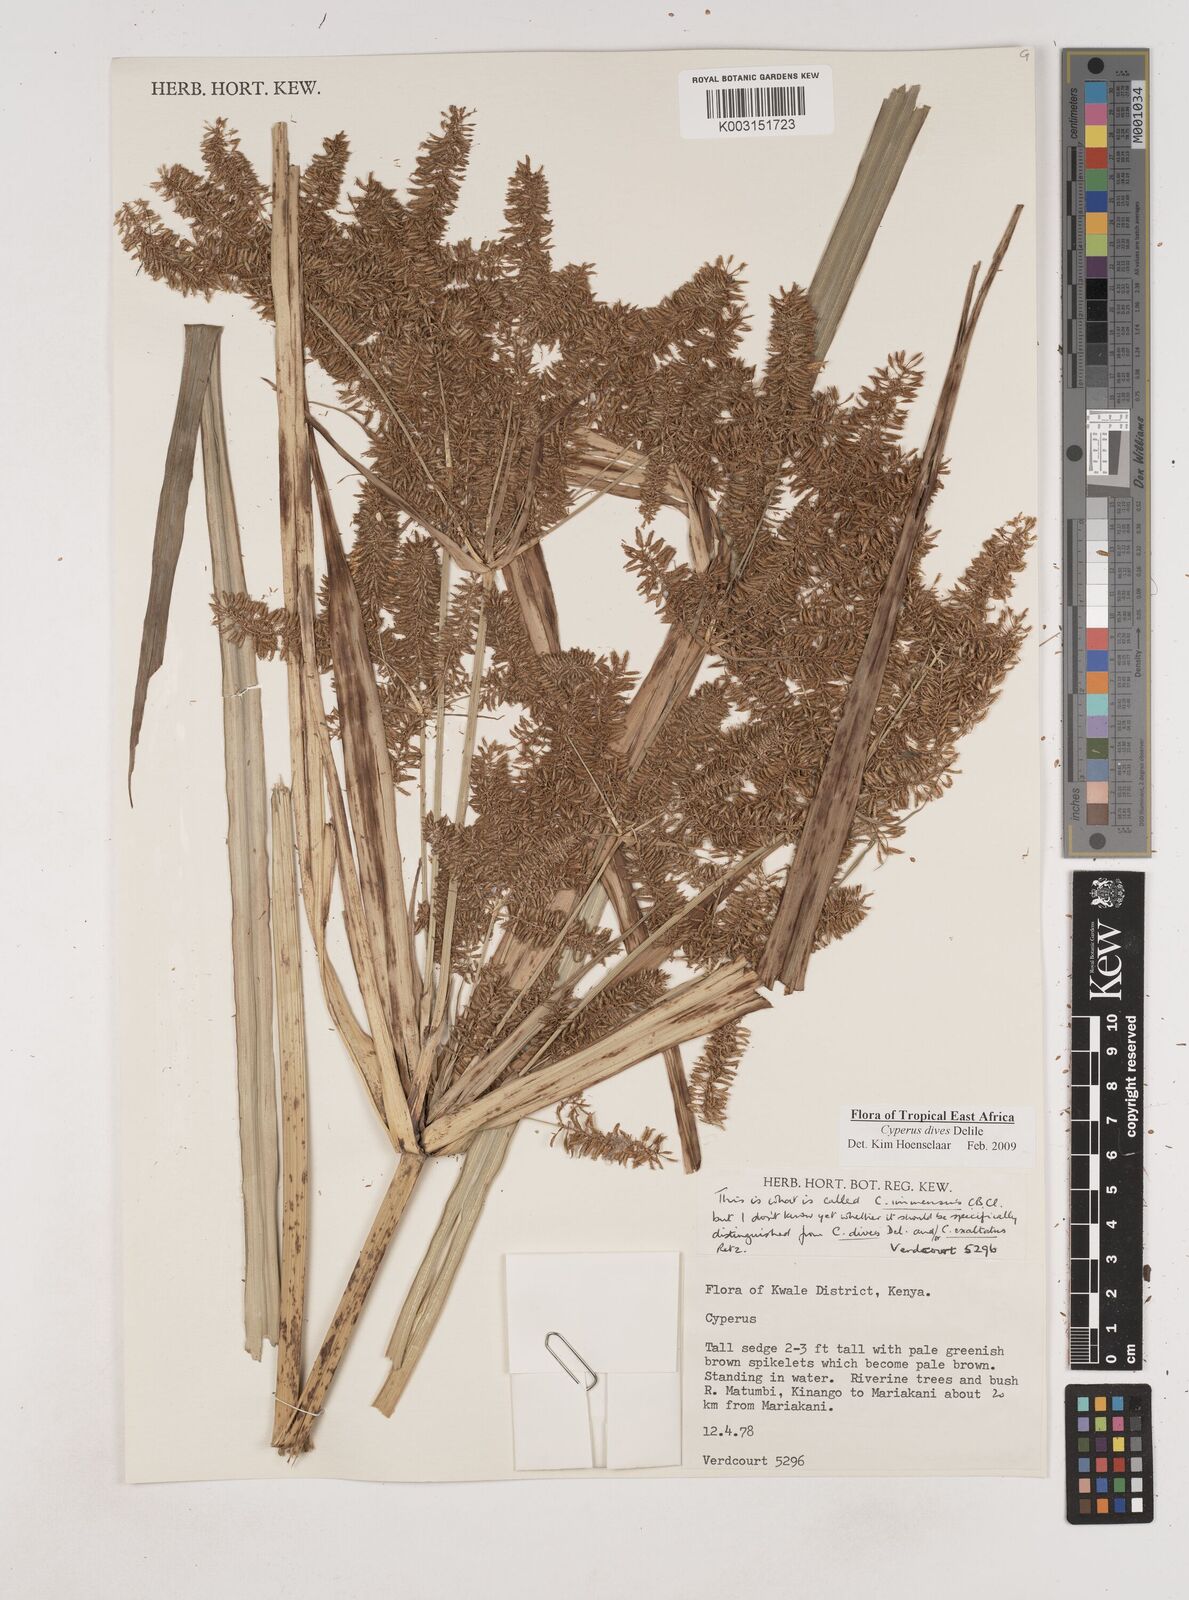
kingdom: Plantae
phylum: Tracheophyta
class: Liliopsida
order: Poales
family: Cyperaceae
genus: Cyperus
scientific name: Cyperus dives
